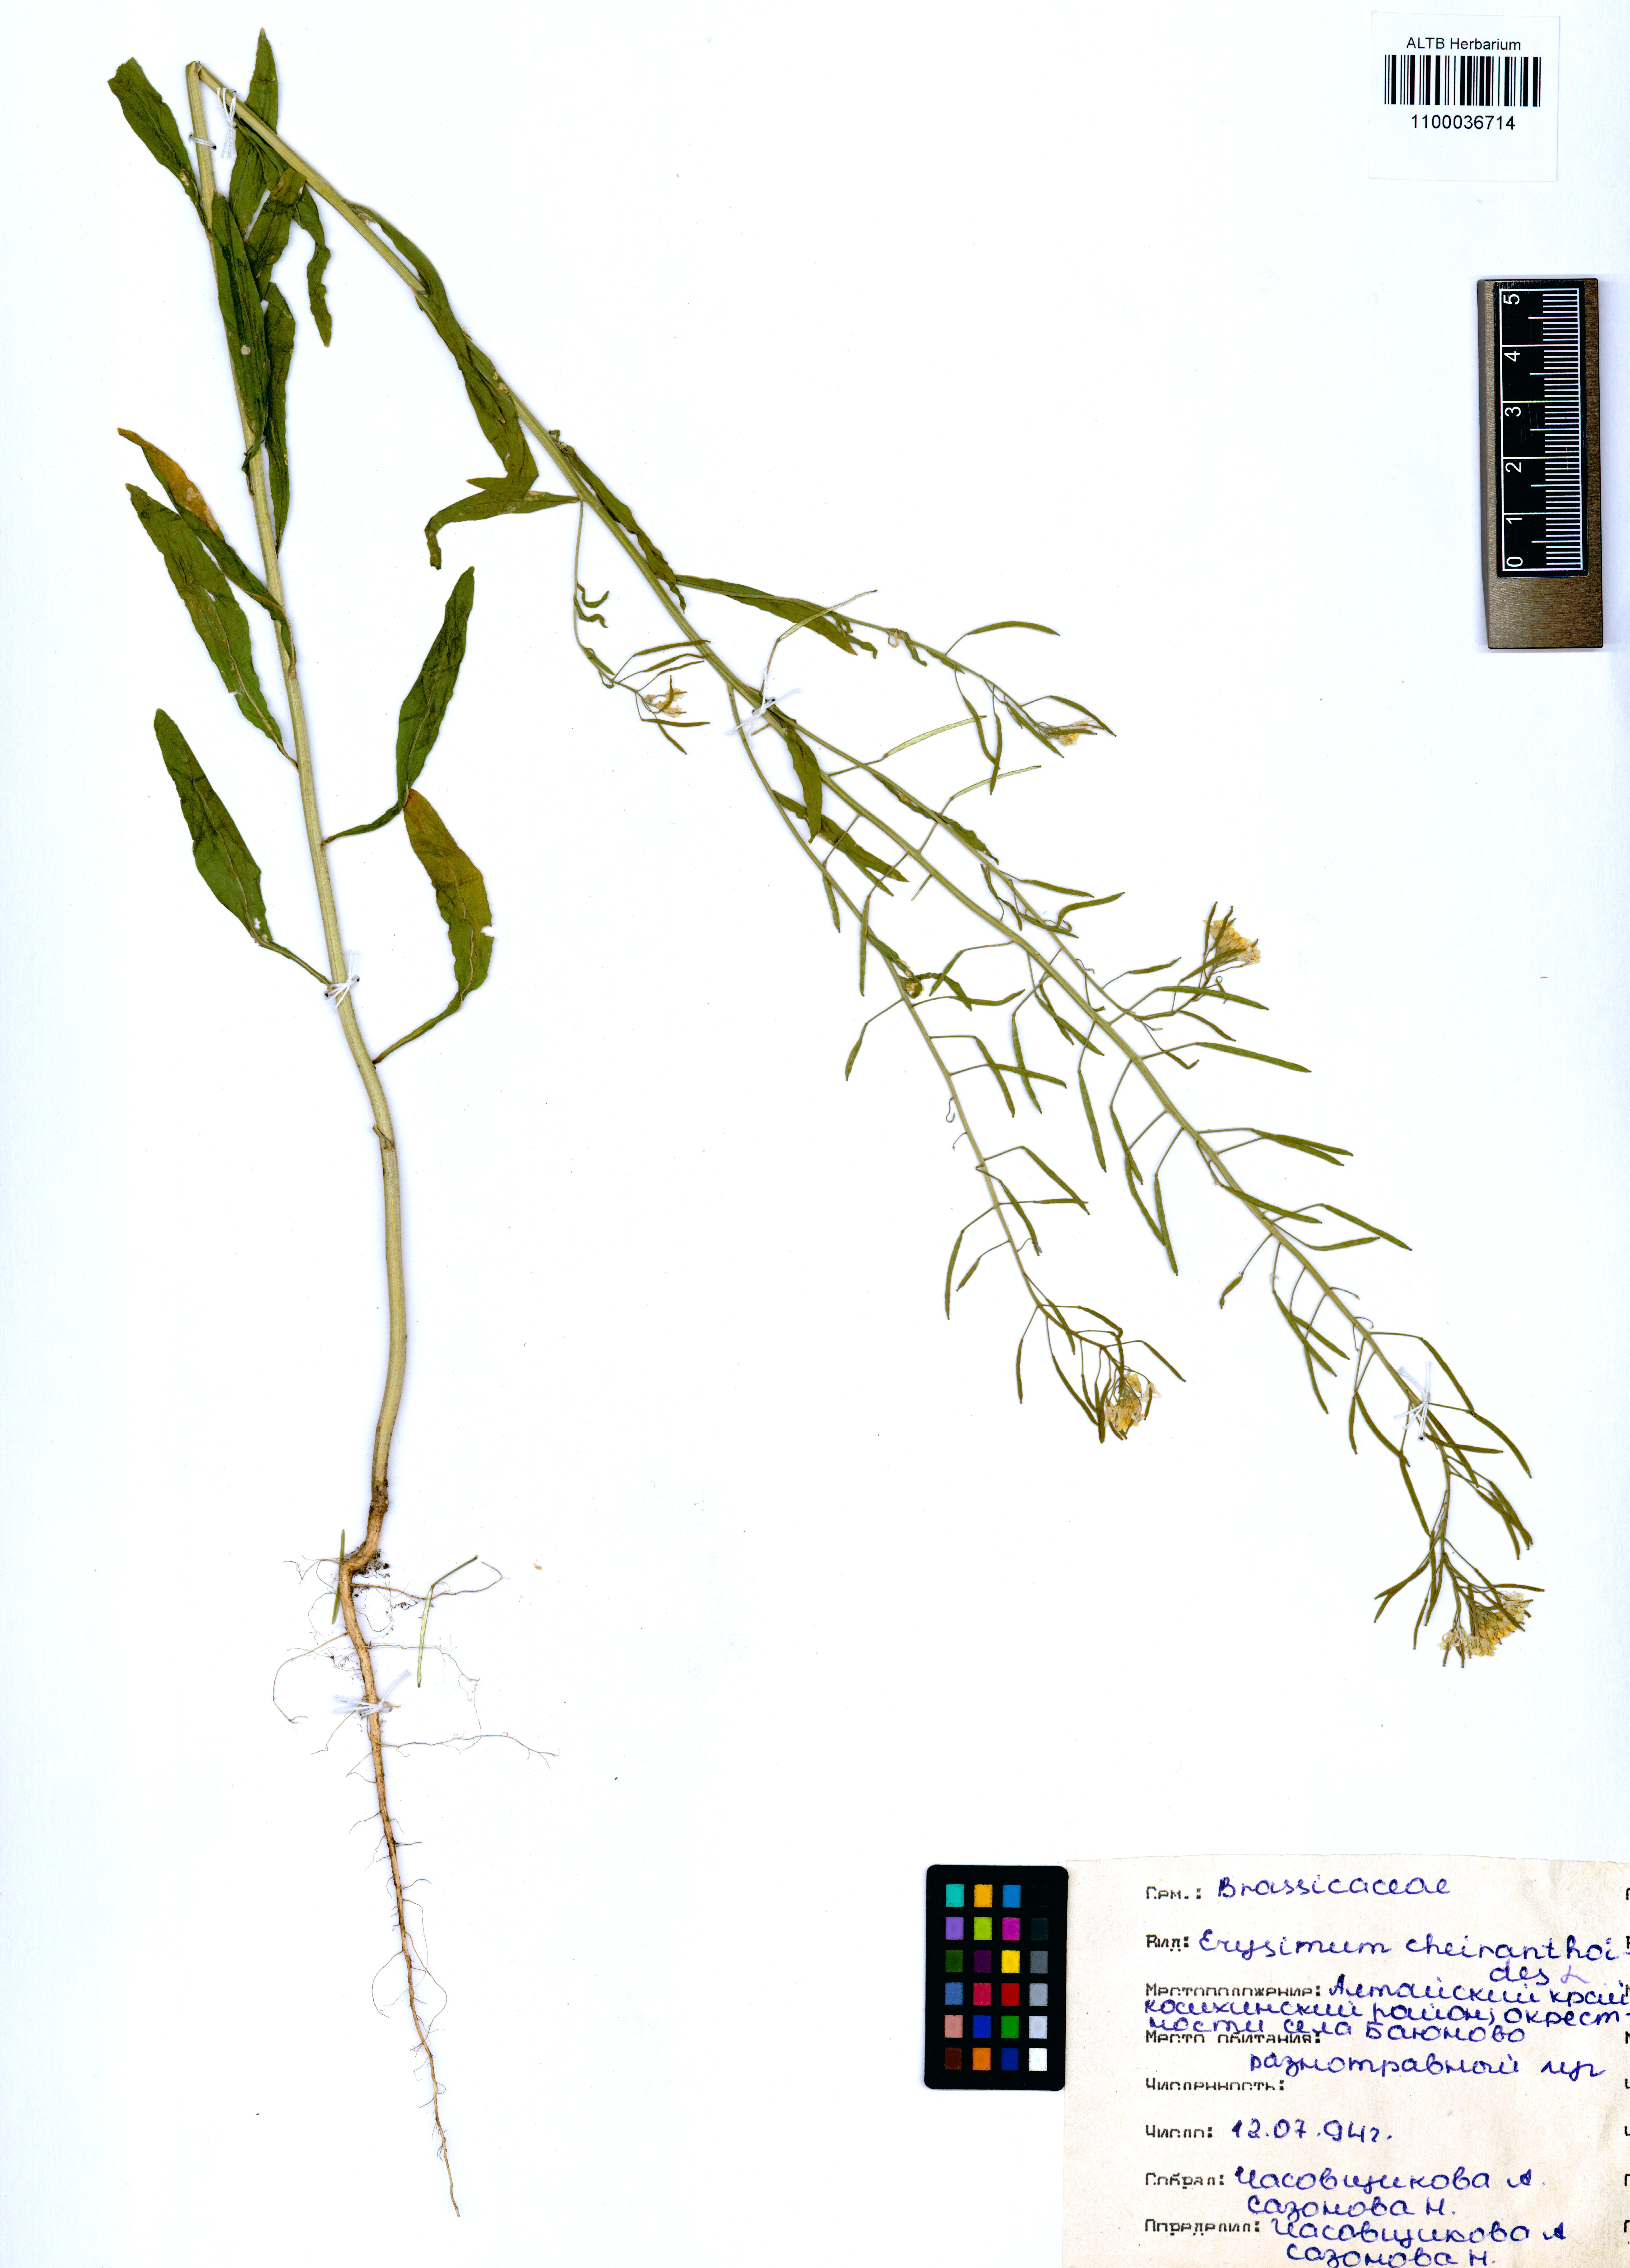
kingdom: Plantae
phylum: Tracheophyta
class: Magnoliopsida
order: Brassicales
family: Brassicaceae
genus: Erysimum
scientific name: Erysimum cheiranthoides
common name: Treacle mustard
